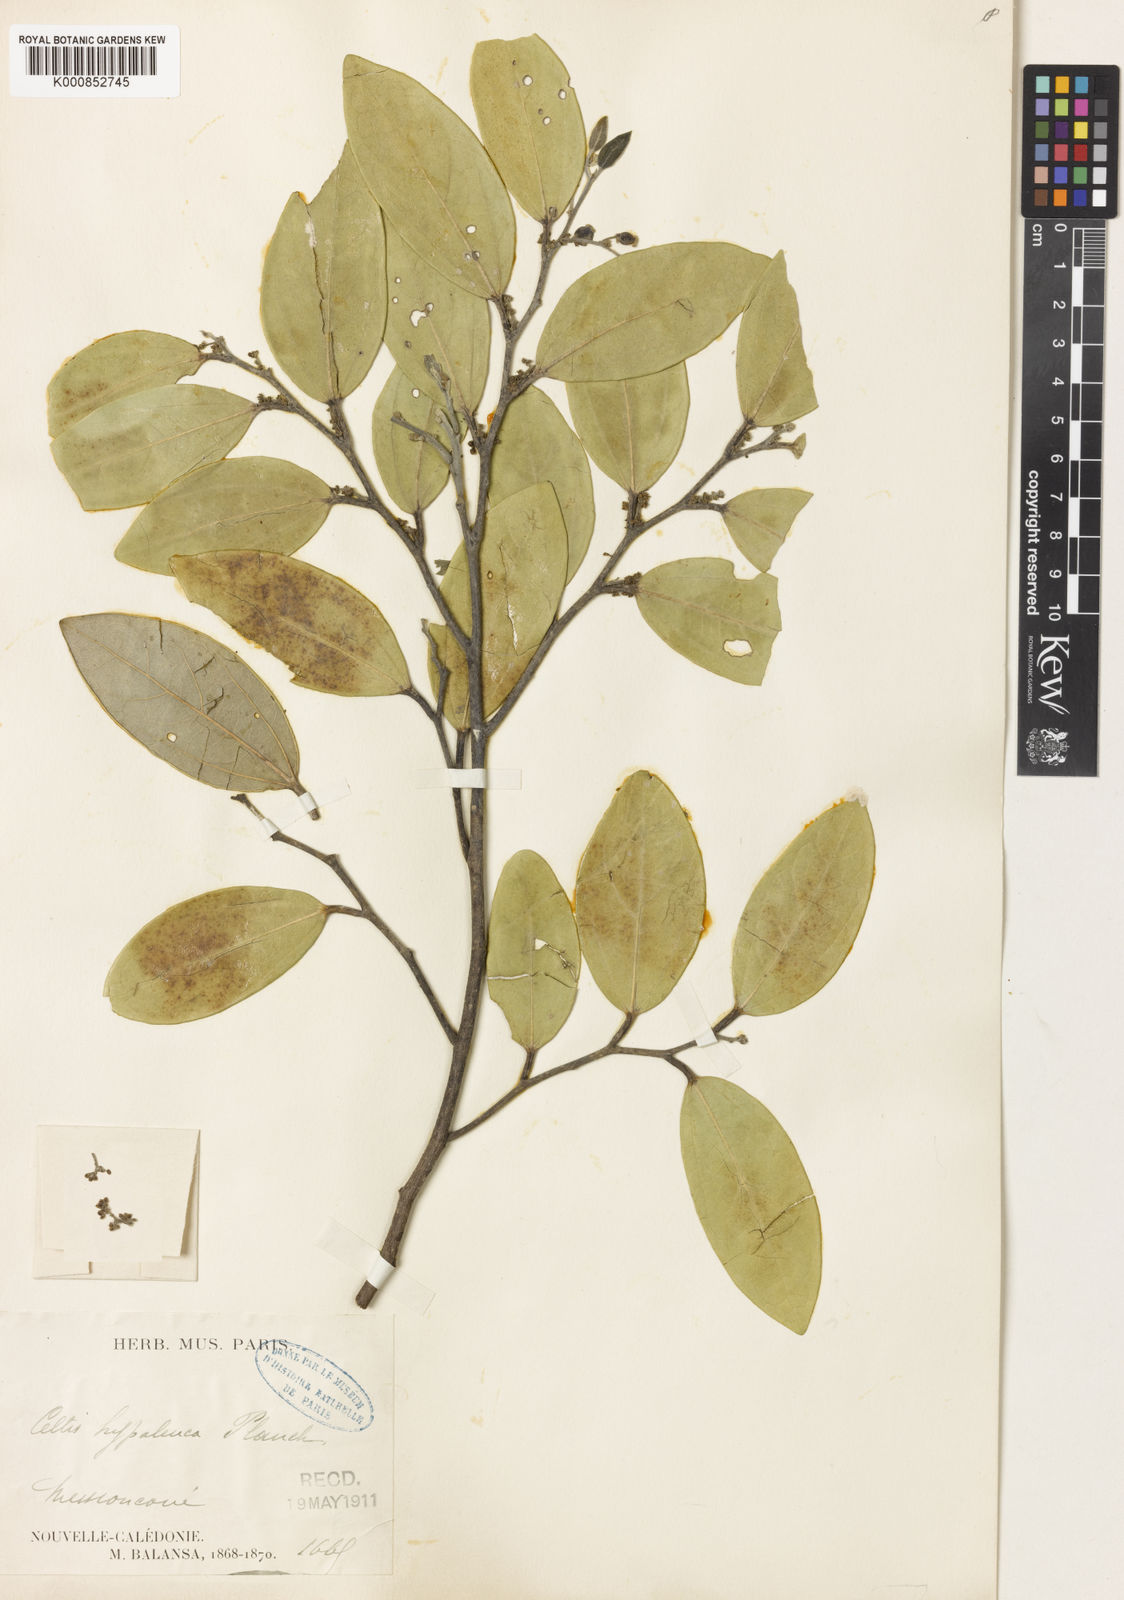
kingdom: Plantae
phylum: Tracheophyta
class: Magnoliopsida
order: Rosales
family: Cannabaceae
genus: Celtis
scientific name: Celtis hypoleuca
